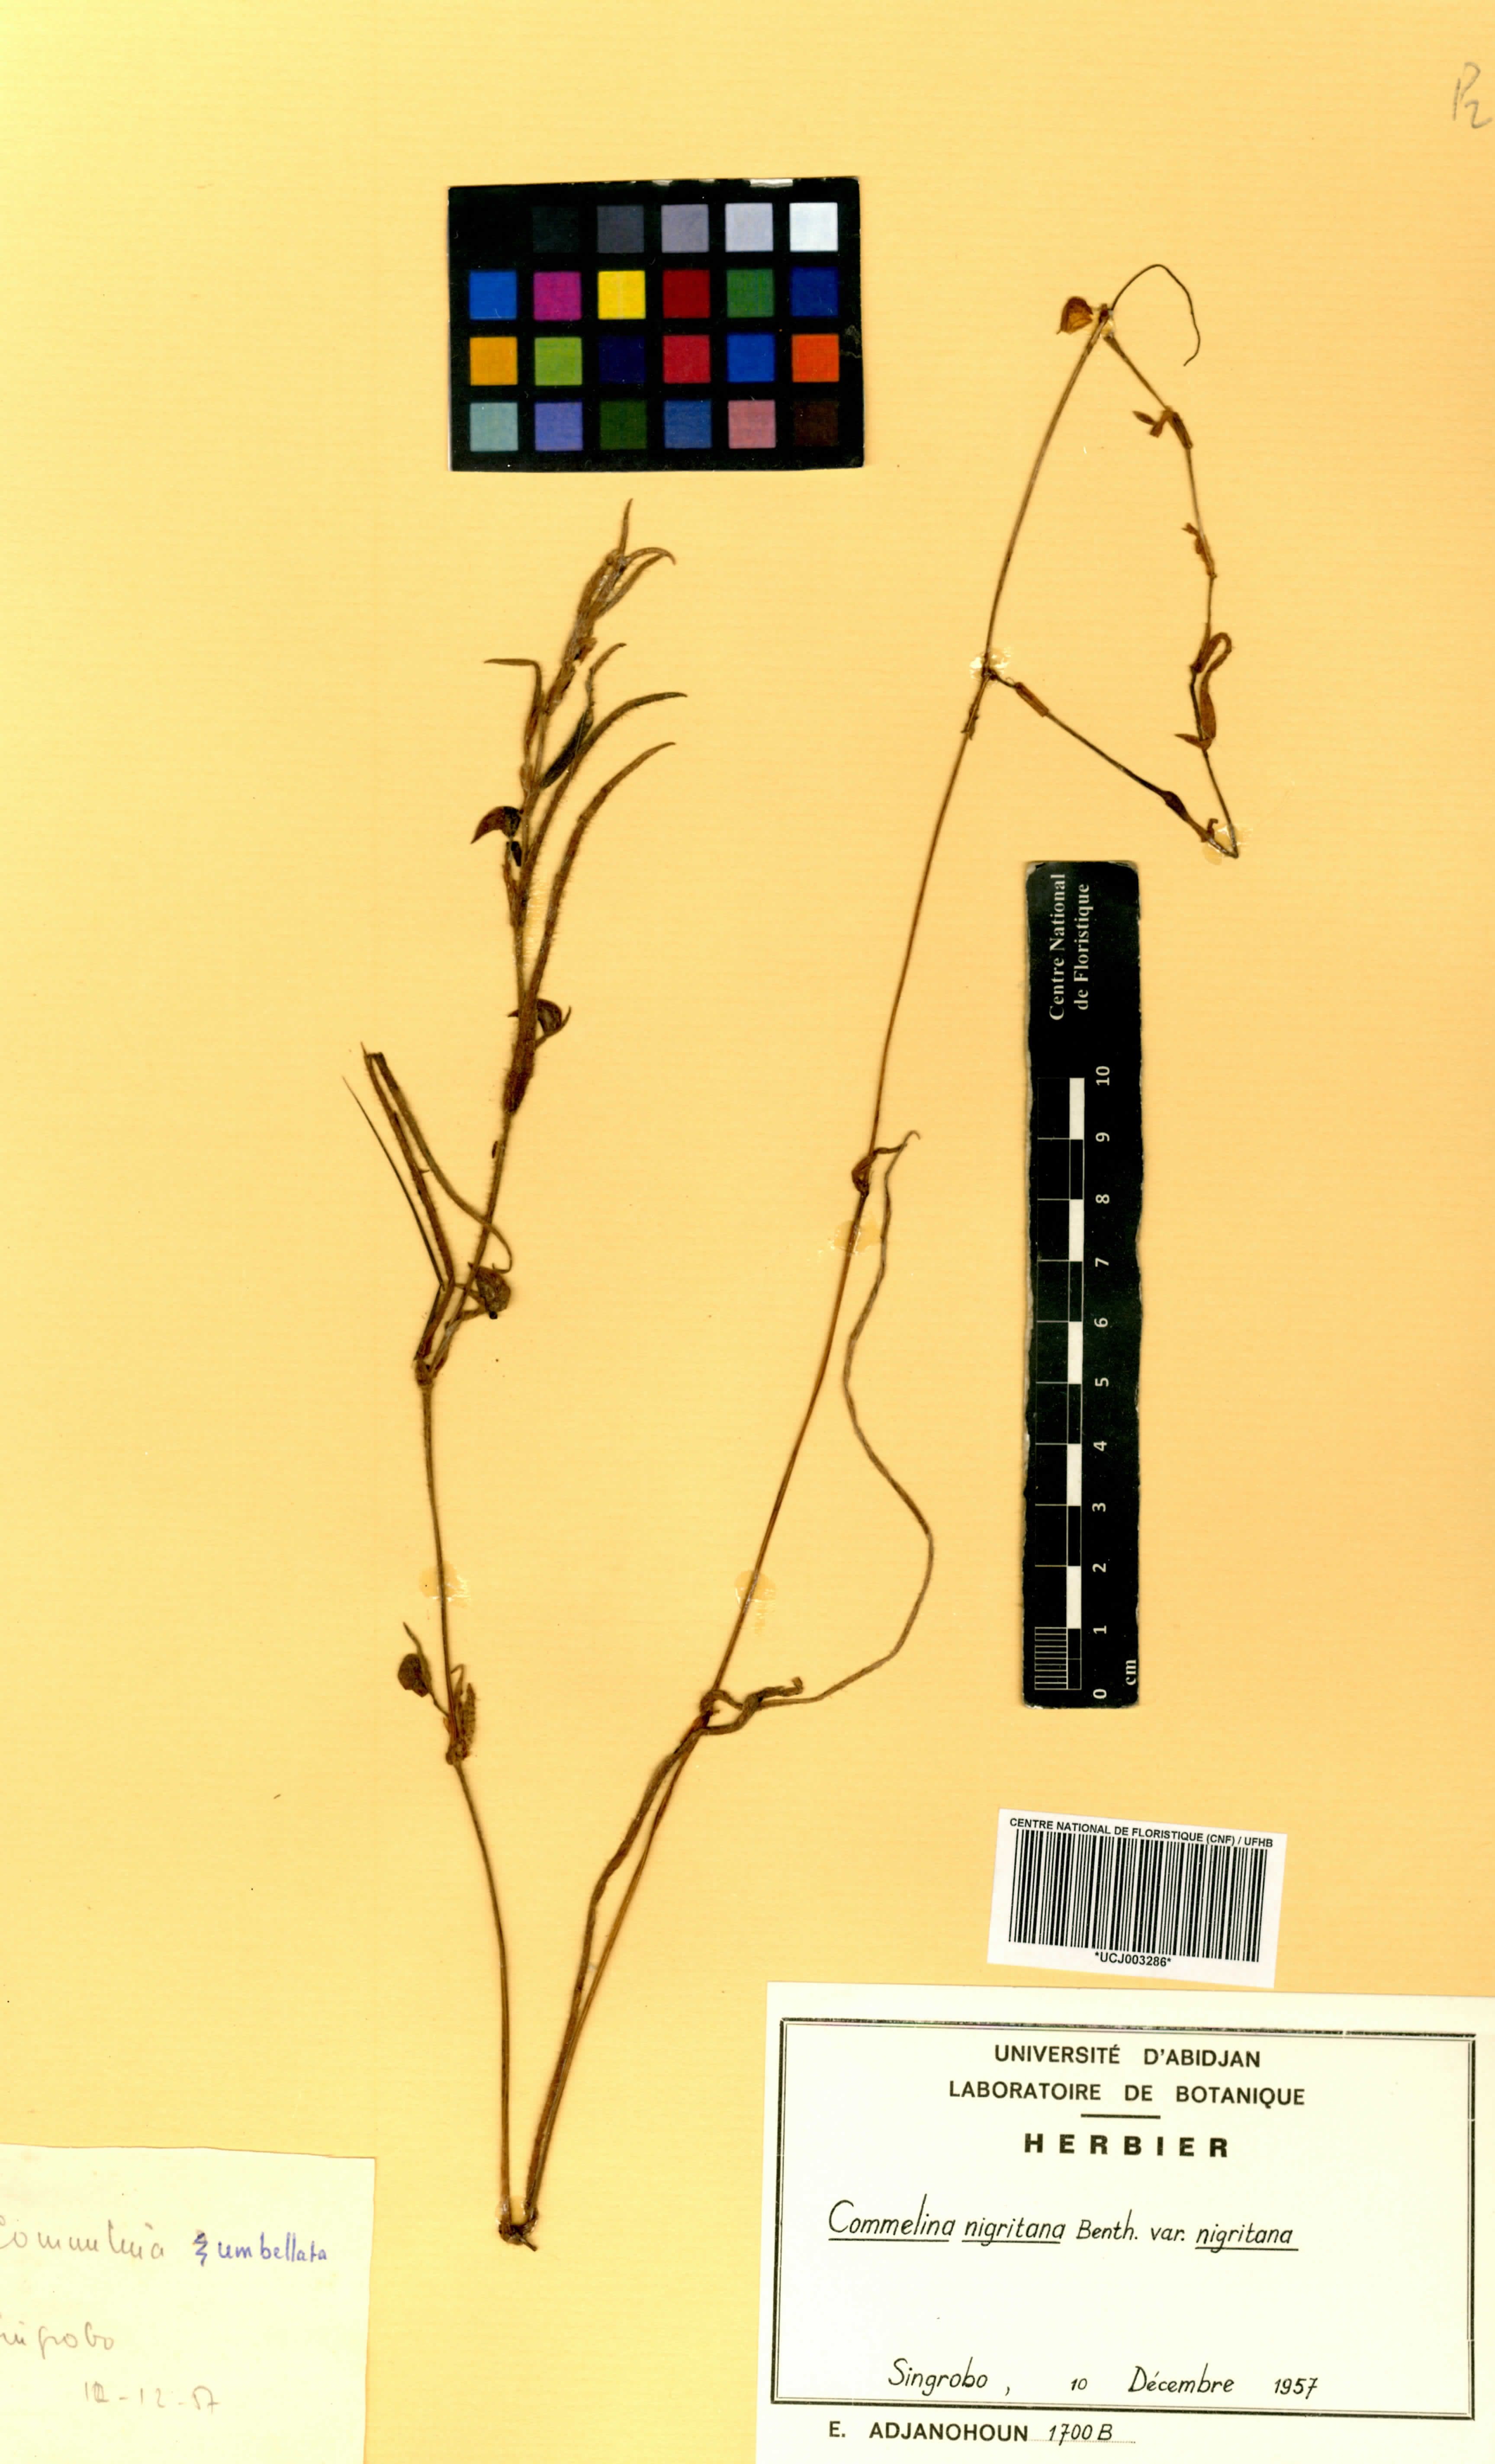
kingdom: Plantae
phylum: Tracheophyta
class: Liliopsida
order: Commelinales
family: Commelinaceae
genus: Commelina
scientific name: Commelina nigritana
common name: African dayflower
